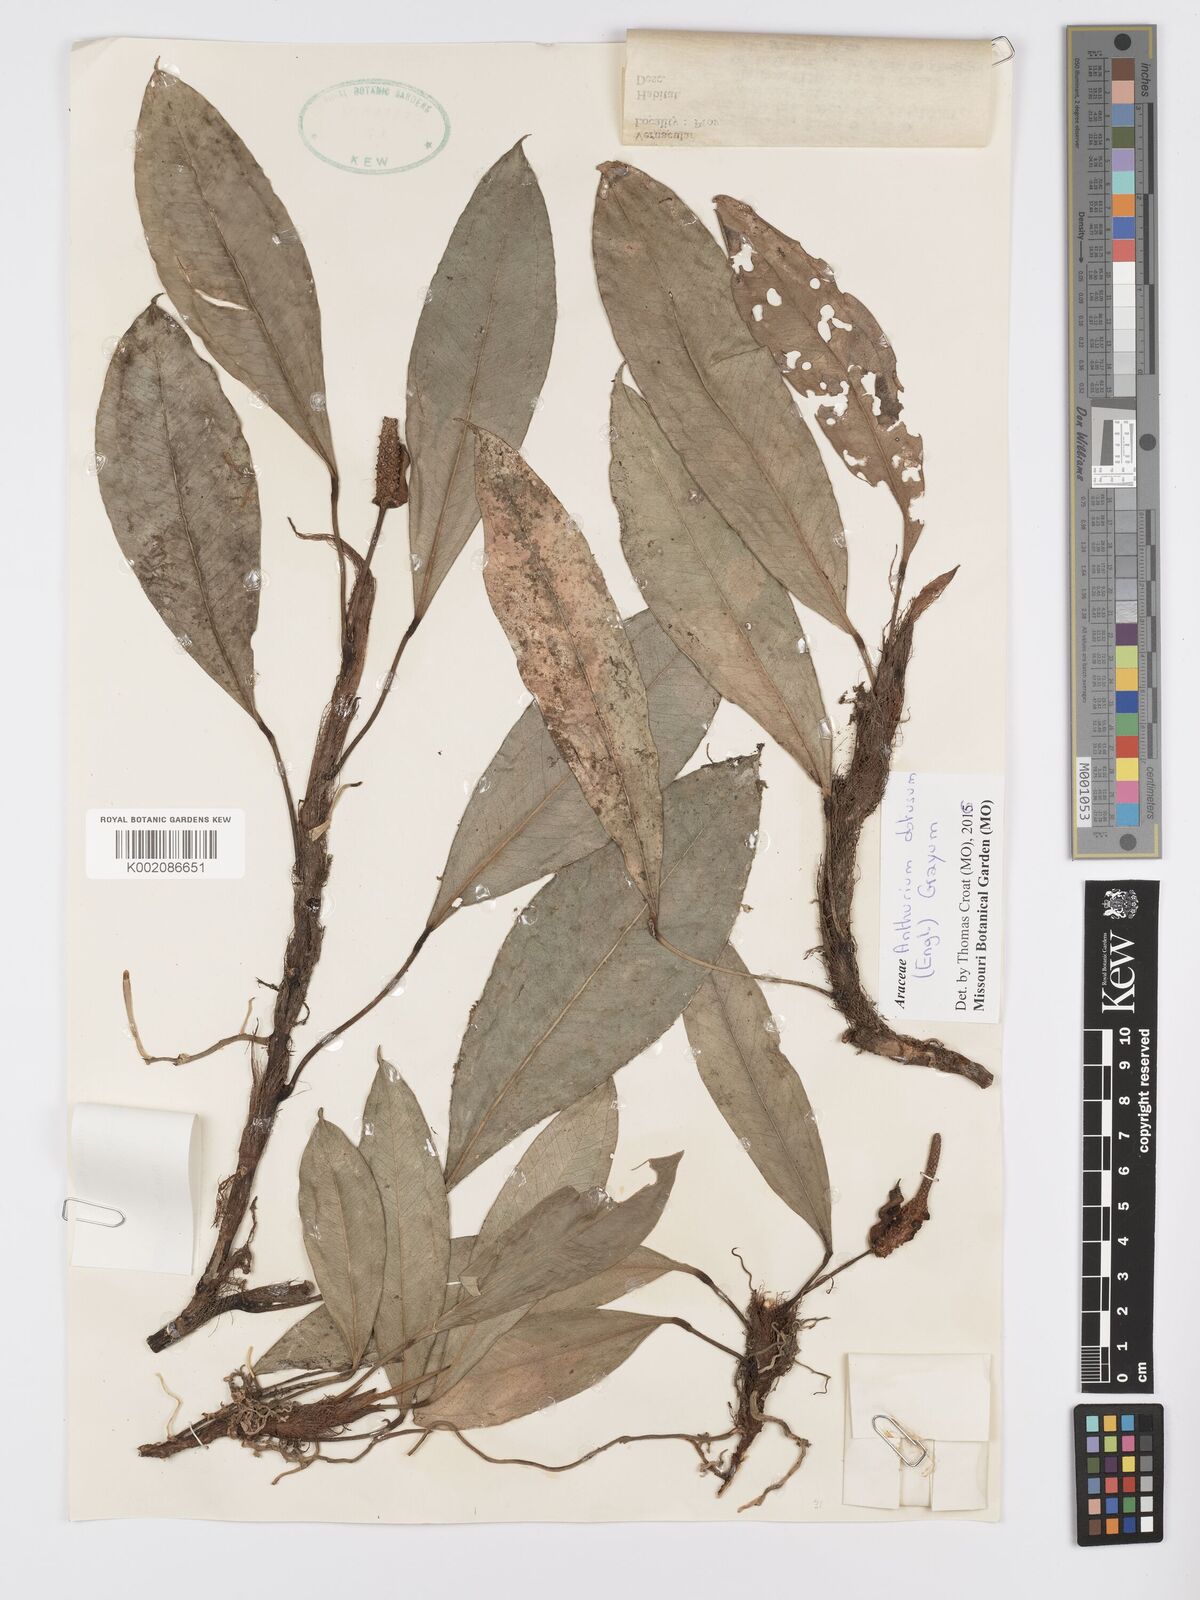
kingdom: Plantae
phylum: Tracheophyta
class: Liliopsida
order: Alismatales
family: Araceae
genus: Anthurium
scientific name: Anthurium obtusum
